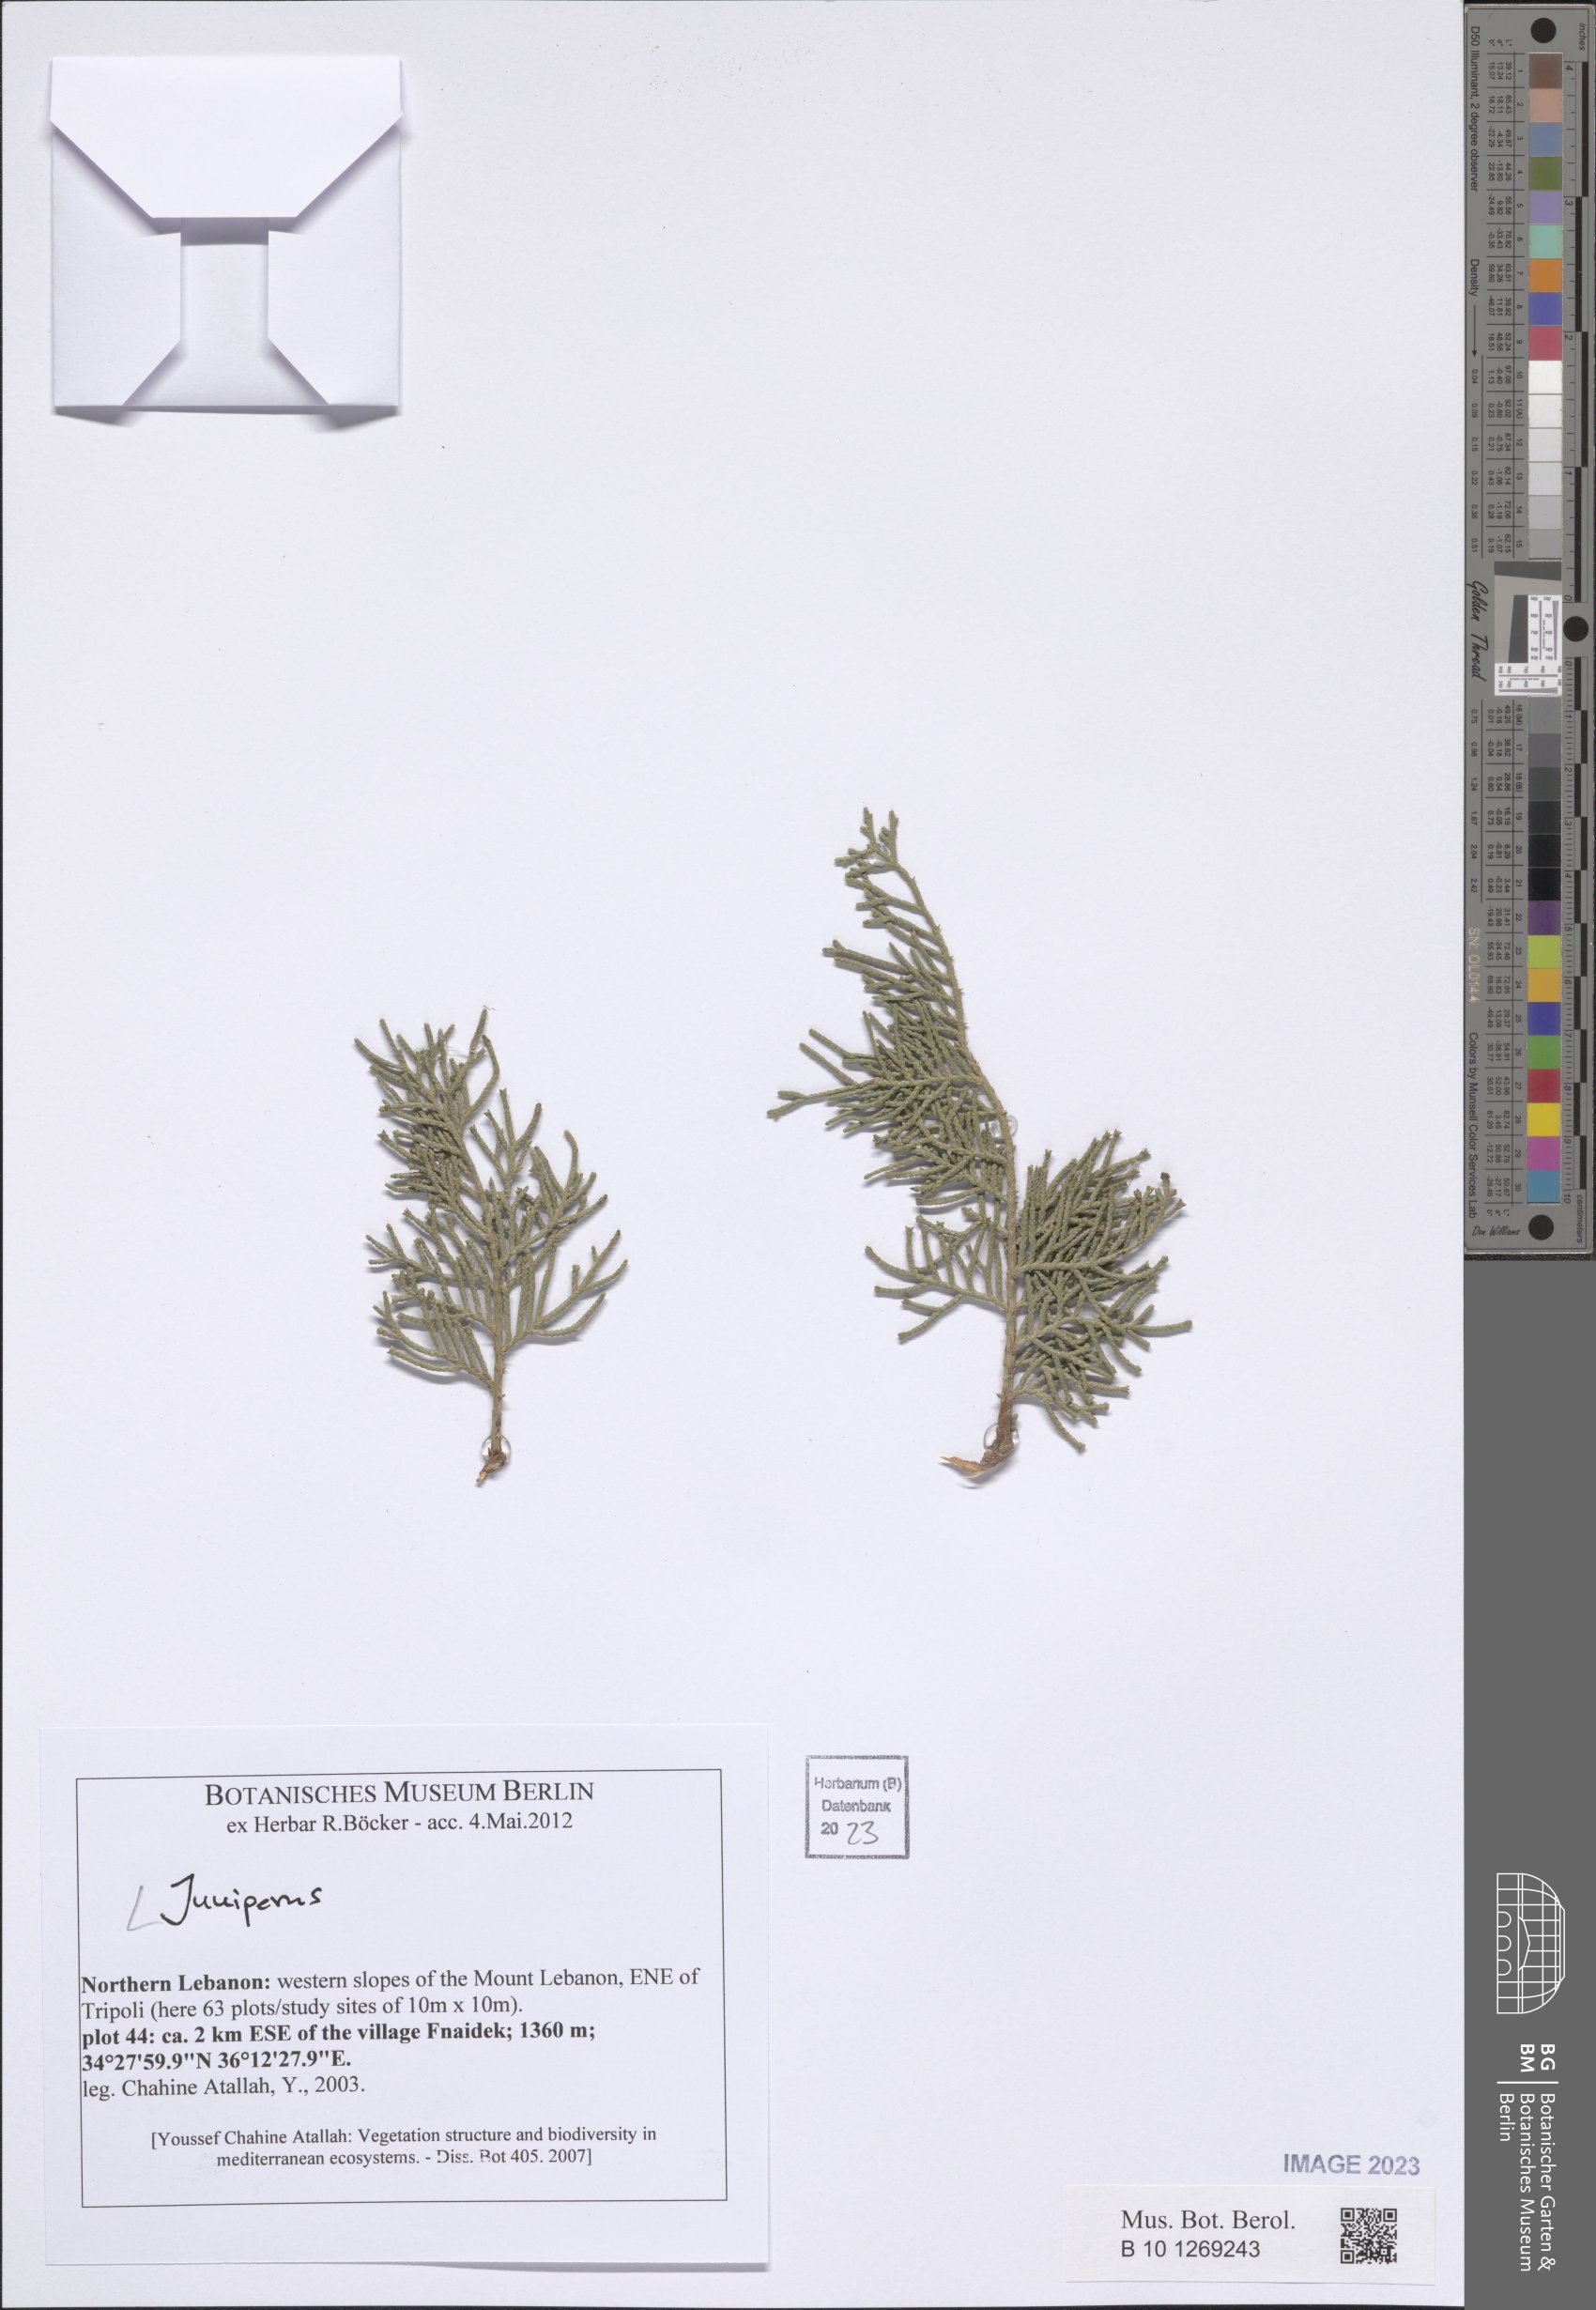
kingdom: Plantae
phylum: Tracheophyta
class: Pinopsida
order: Pinales
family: Cupressaceae
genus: Juniperus
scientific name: Juniperus
